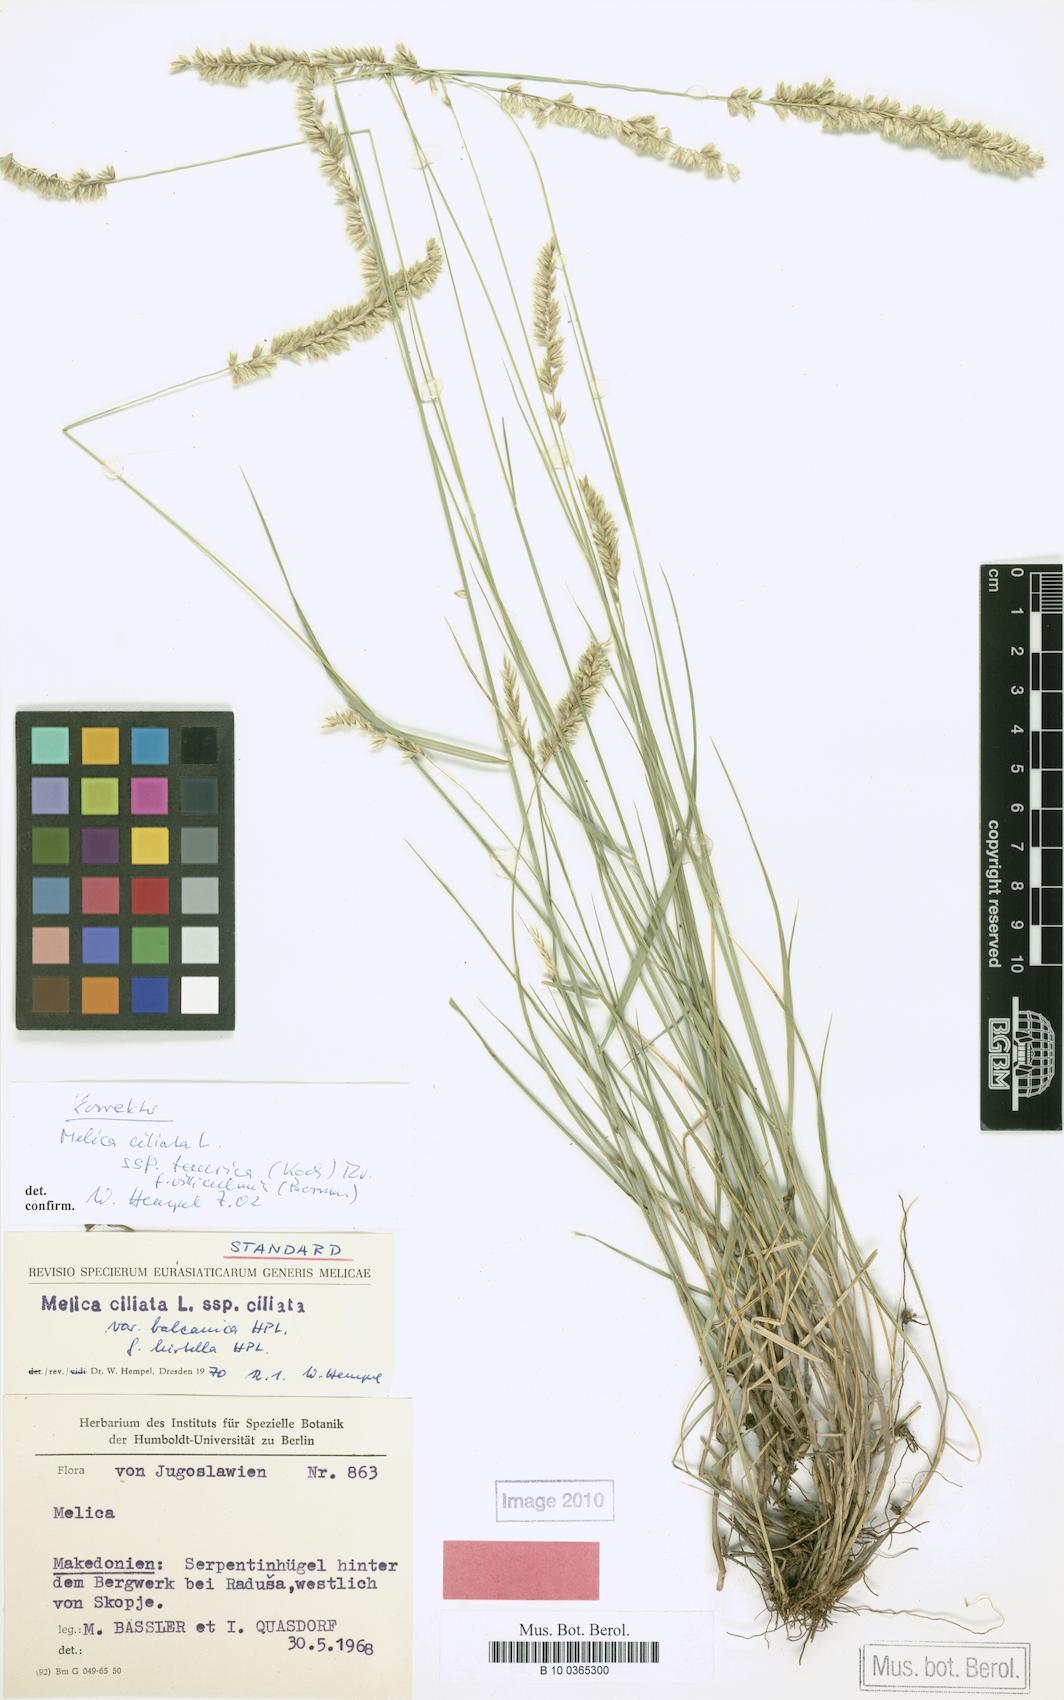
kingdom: Plantae
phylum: Tracheophyta
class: Liliopsida
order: Poales
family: Poaceae
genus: Melica
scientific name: Melica ciliata
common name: Hairy melicgrass
